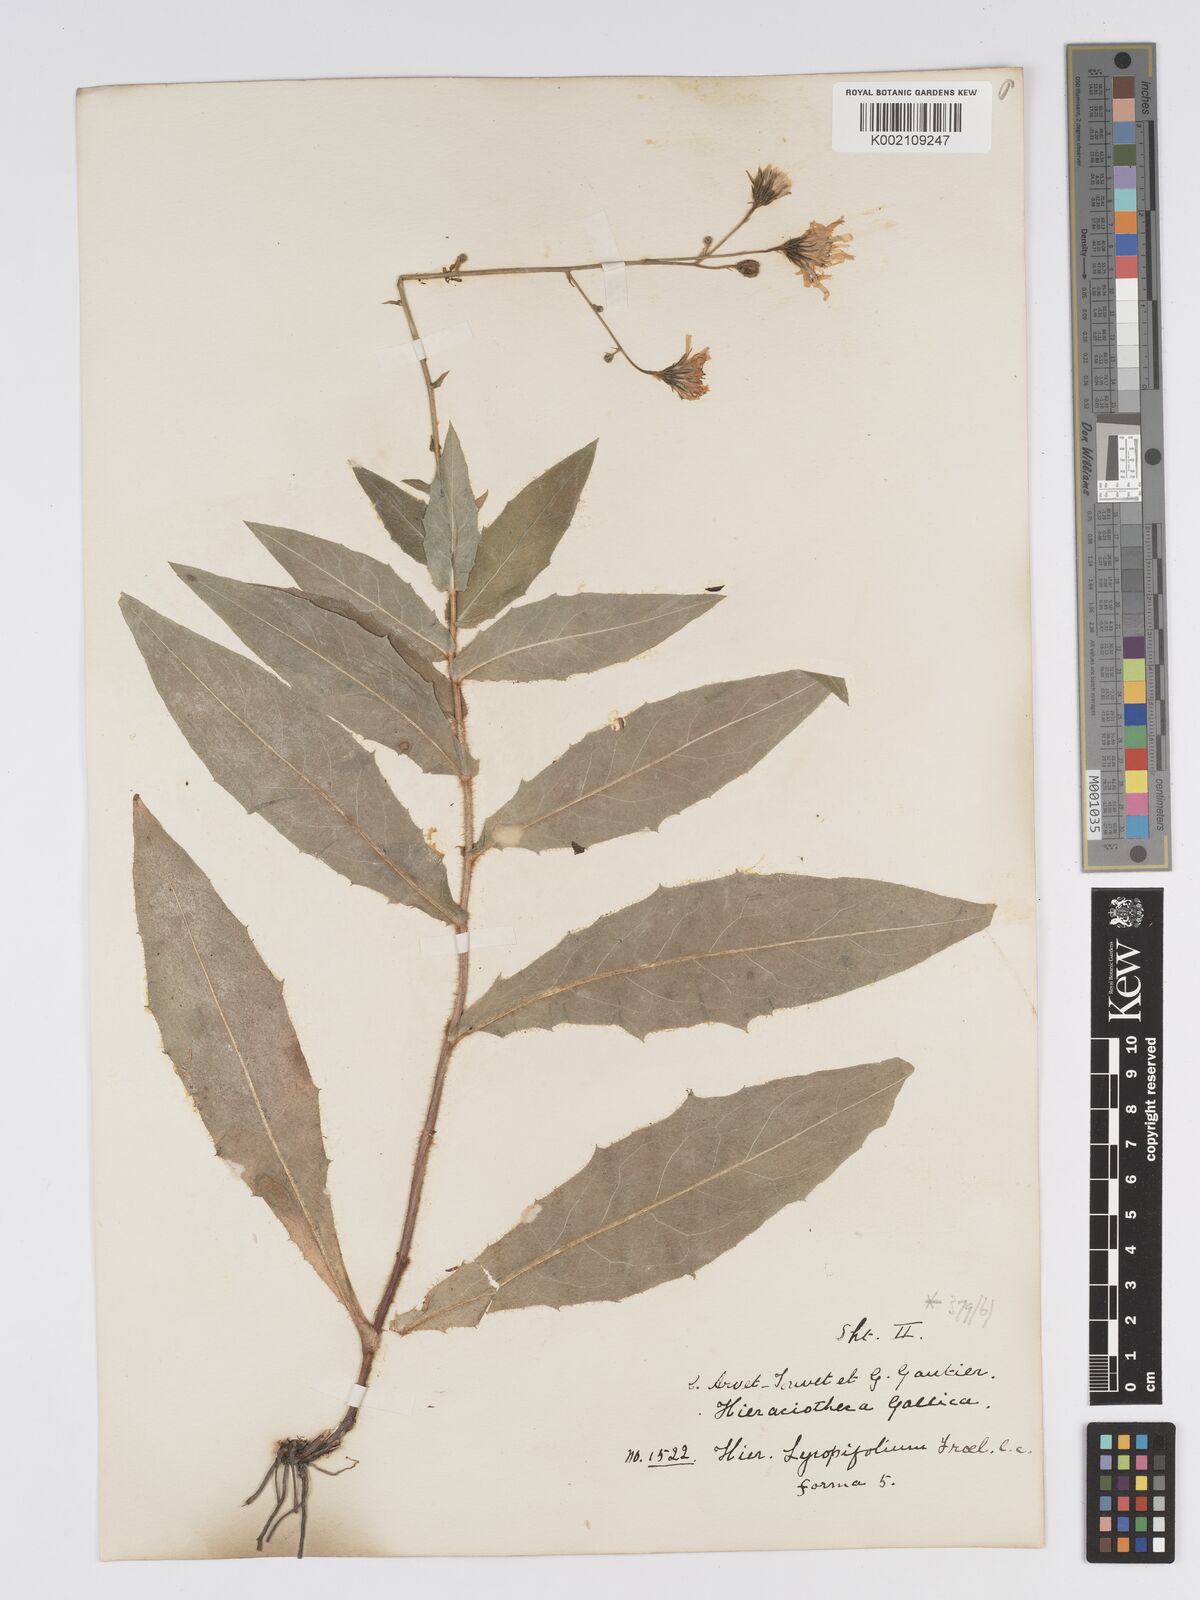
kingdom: Plantae
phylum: Tracheophyta
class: Magnoliopsida
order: Asterales
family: Asteraceae
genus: Hieracium
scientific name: Hieracium lycopifolium
